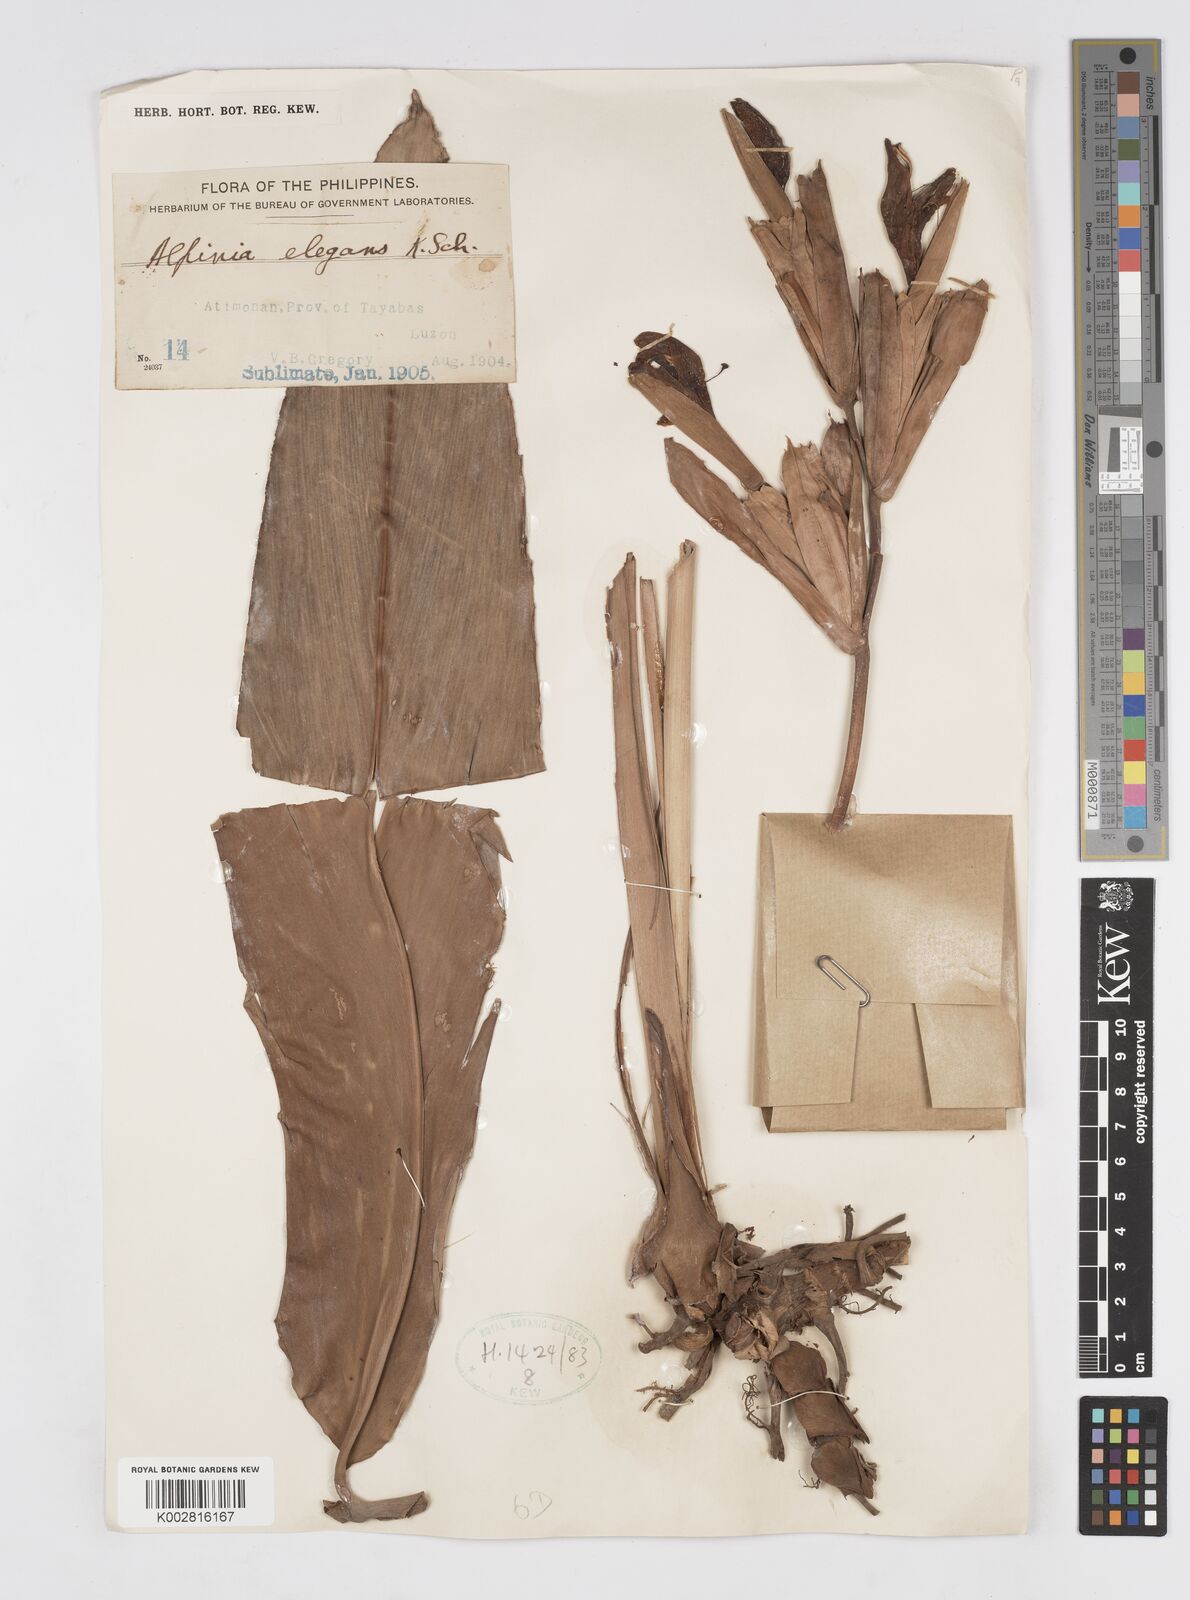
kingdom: Plantae
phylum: Tracheophyta
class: Liliopsida
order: Zingiberales
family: Zingiberaceae
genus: Alpinia
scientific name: Alpinia elegans
